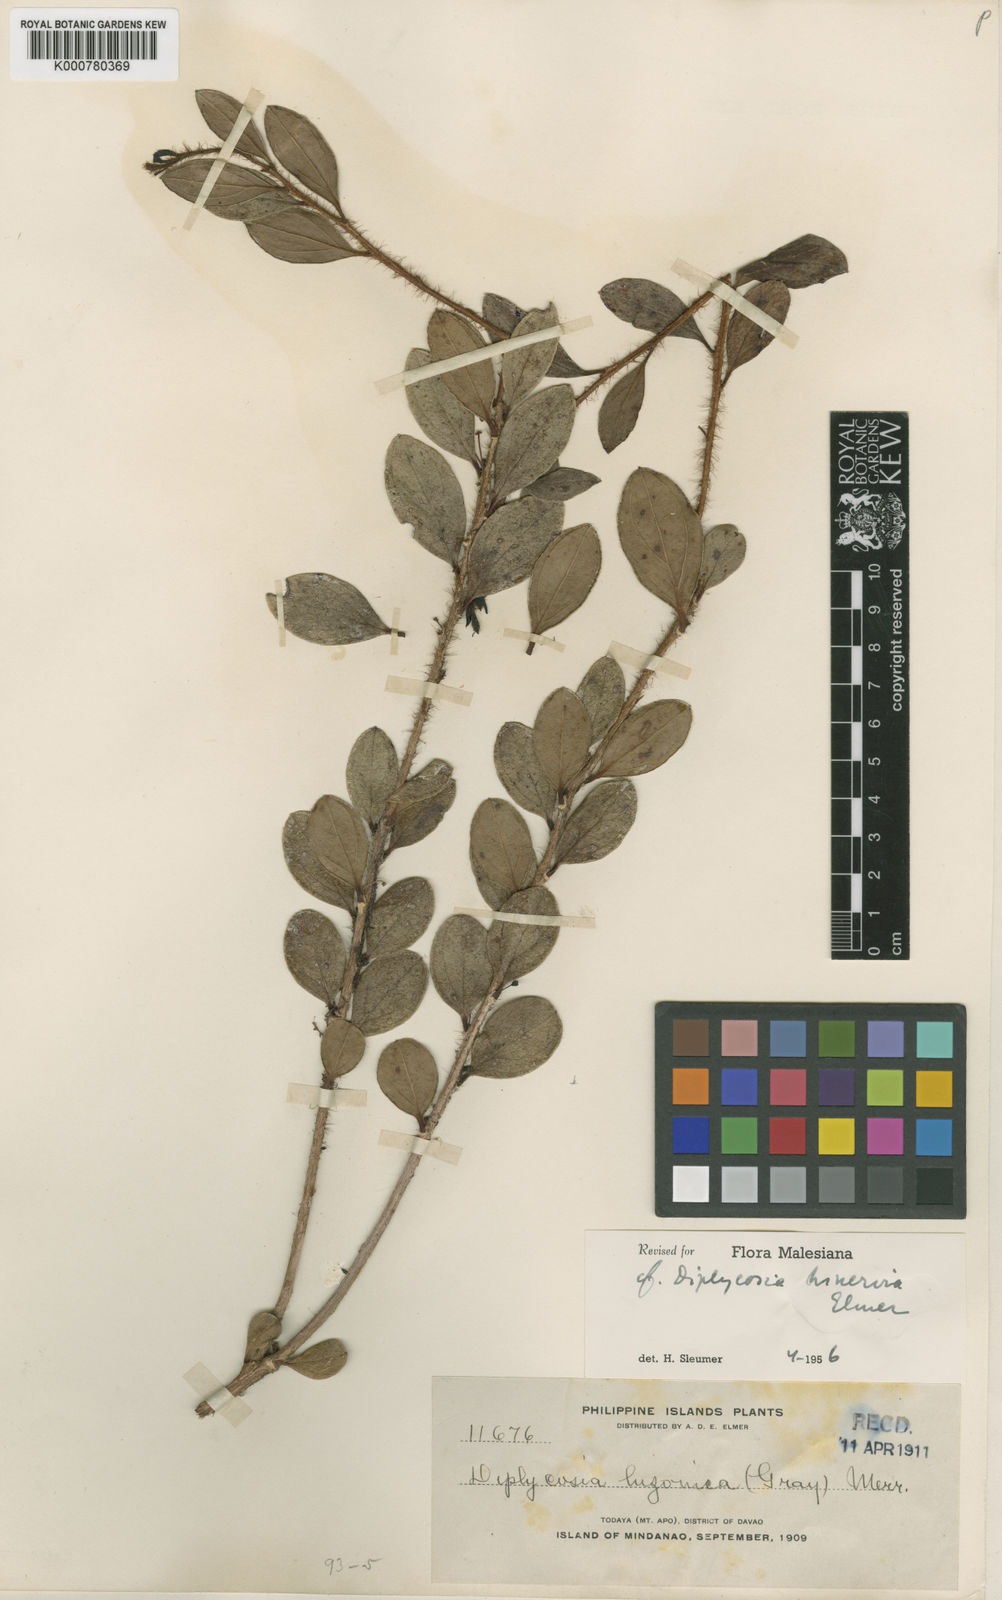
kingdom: Plantae
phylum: Tracheophyta
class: Magnoliopsida
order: Ericales
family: Ericaceae
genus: Gaultheria
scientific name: Gaultheria trinervia
